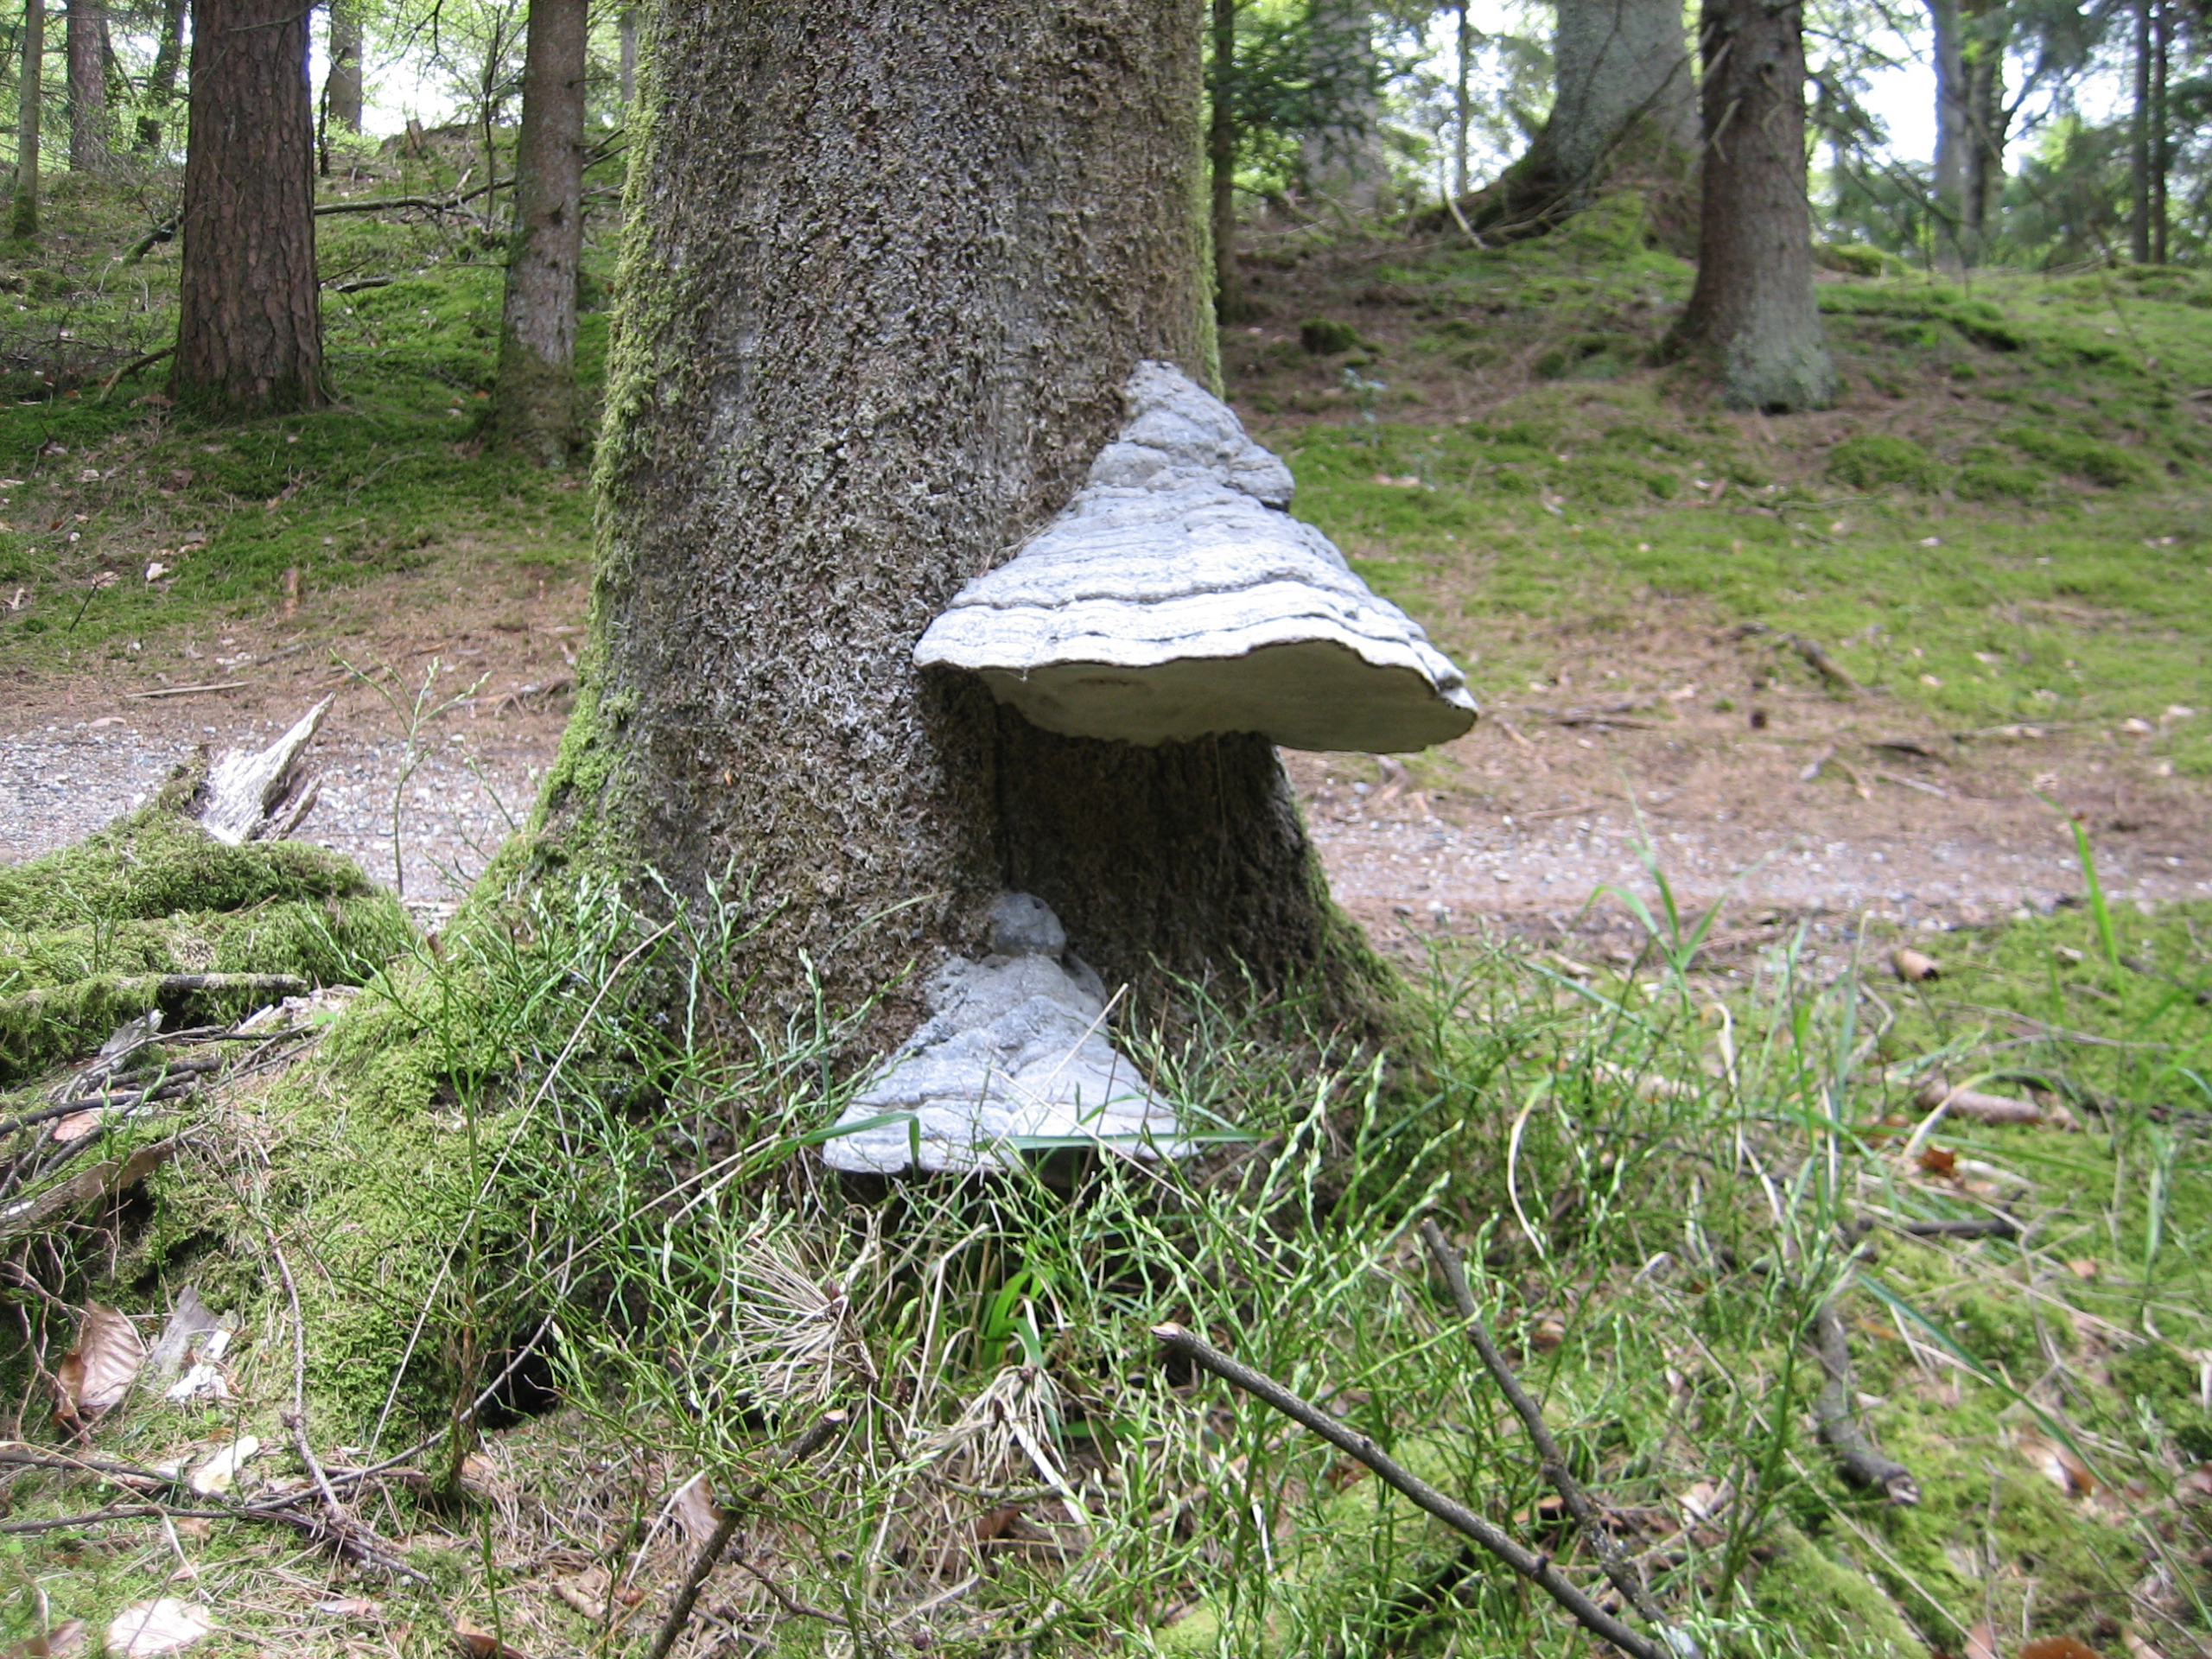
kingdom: Fungi
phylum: Basidiomycota
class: Agaricomycetes
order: Polyporales
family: Polyporaceae
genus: Fomes
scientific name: Fomes fomentarius
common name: Tøndersvamp
